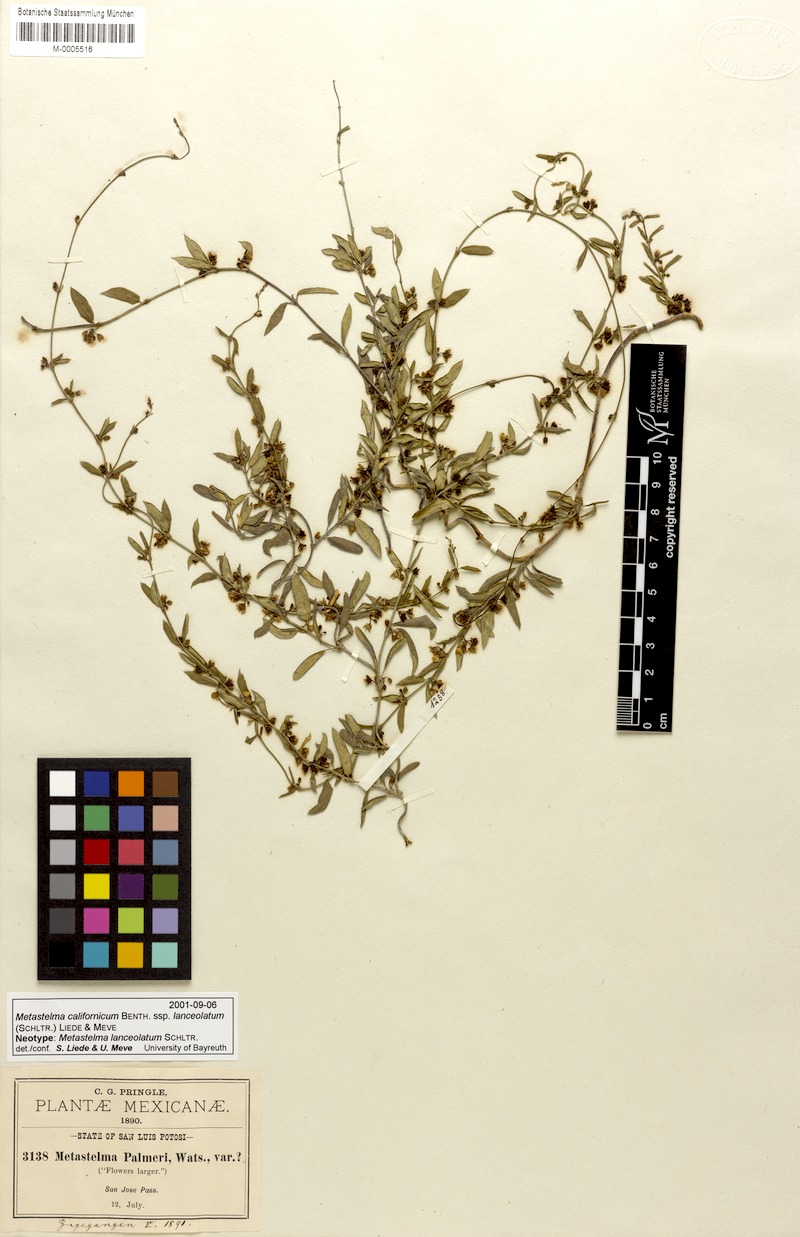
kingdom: Plantae
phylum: Tracheophyta
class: Magnoliopsida
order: Gentianales
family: Apocynaceae
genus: Metastelma
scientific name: Metastelma californicum
